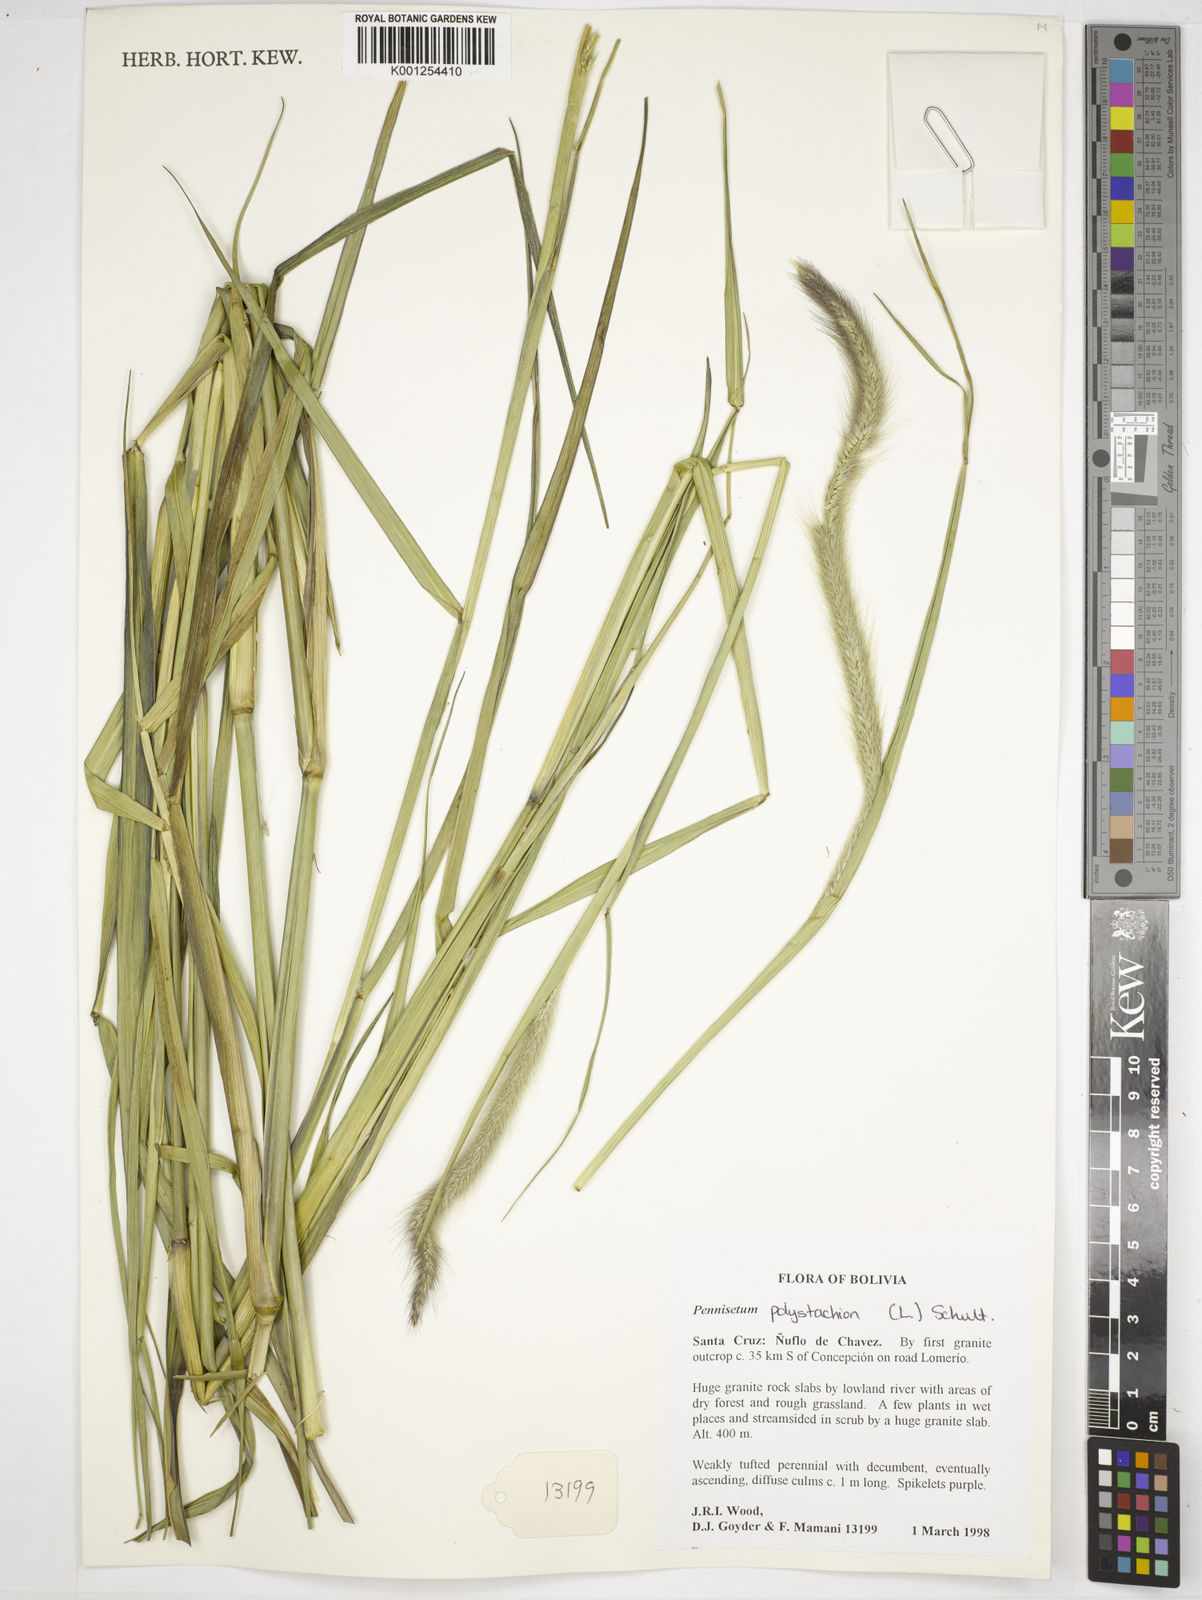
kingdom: Plantae
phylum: Tracheophyta
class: Liliopsida
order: Poales
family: Poaceae
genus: Setaria
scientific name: Setaria parviflora
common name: Knotroot bristle-grass
